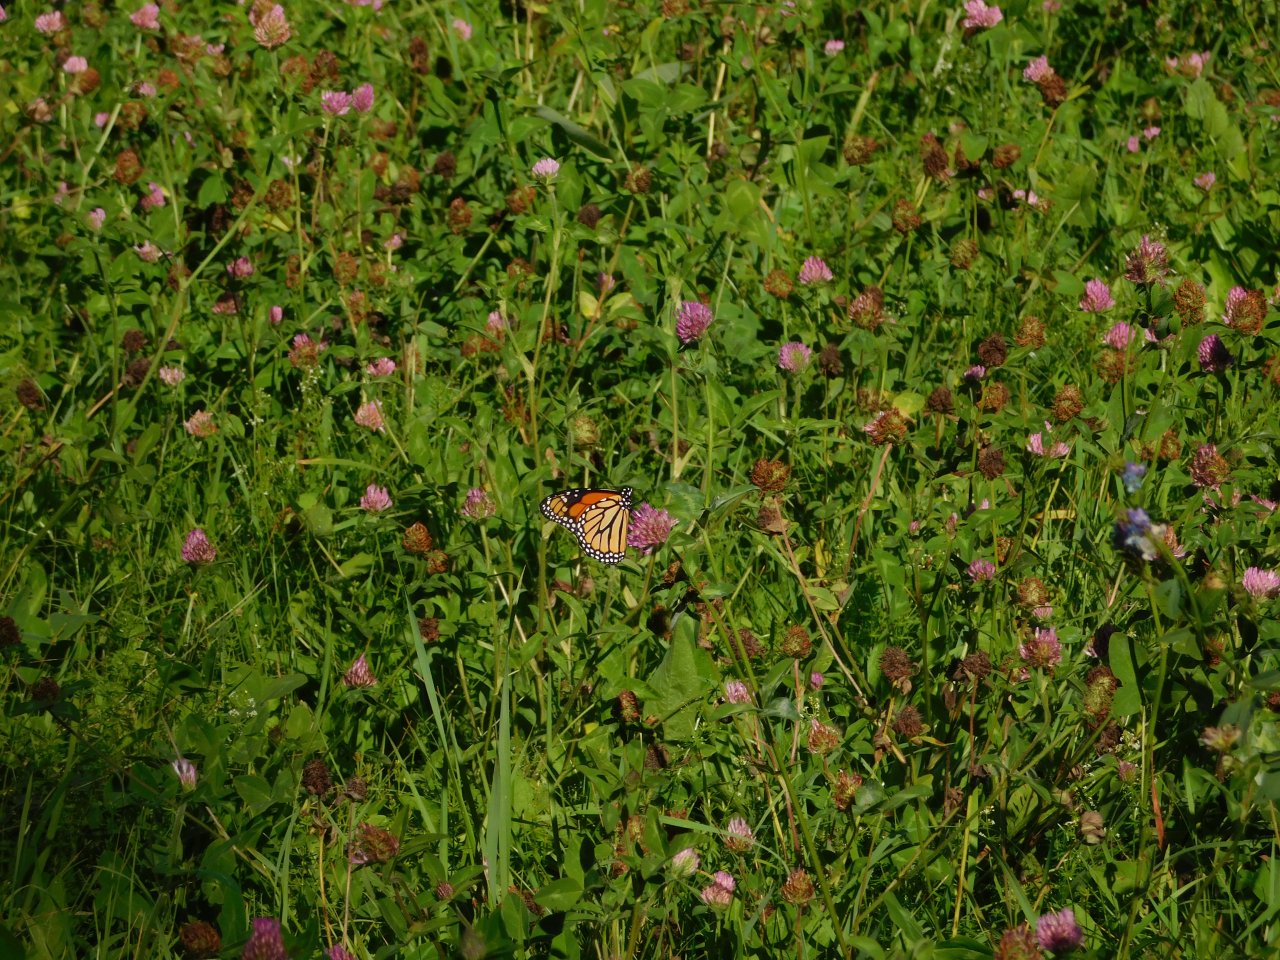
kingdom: Animalia
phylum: Arthropoda
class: Insecta
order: Lepidoptera
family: Nymphalidae
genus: Danaus
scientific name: Danaus plexippus
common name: Monarch
